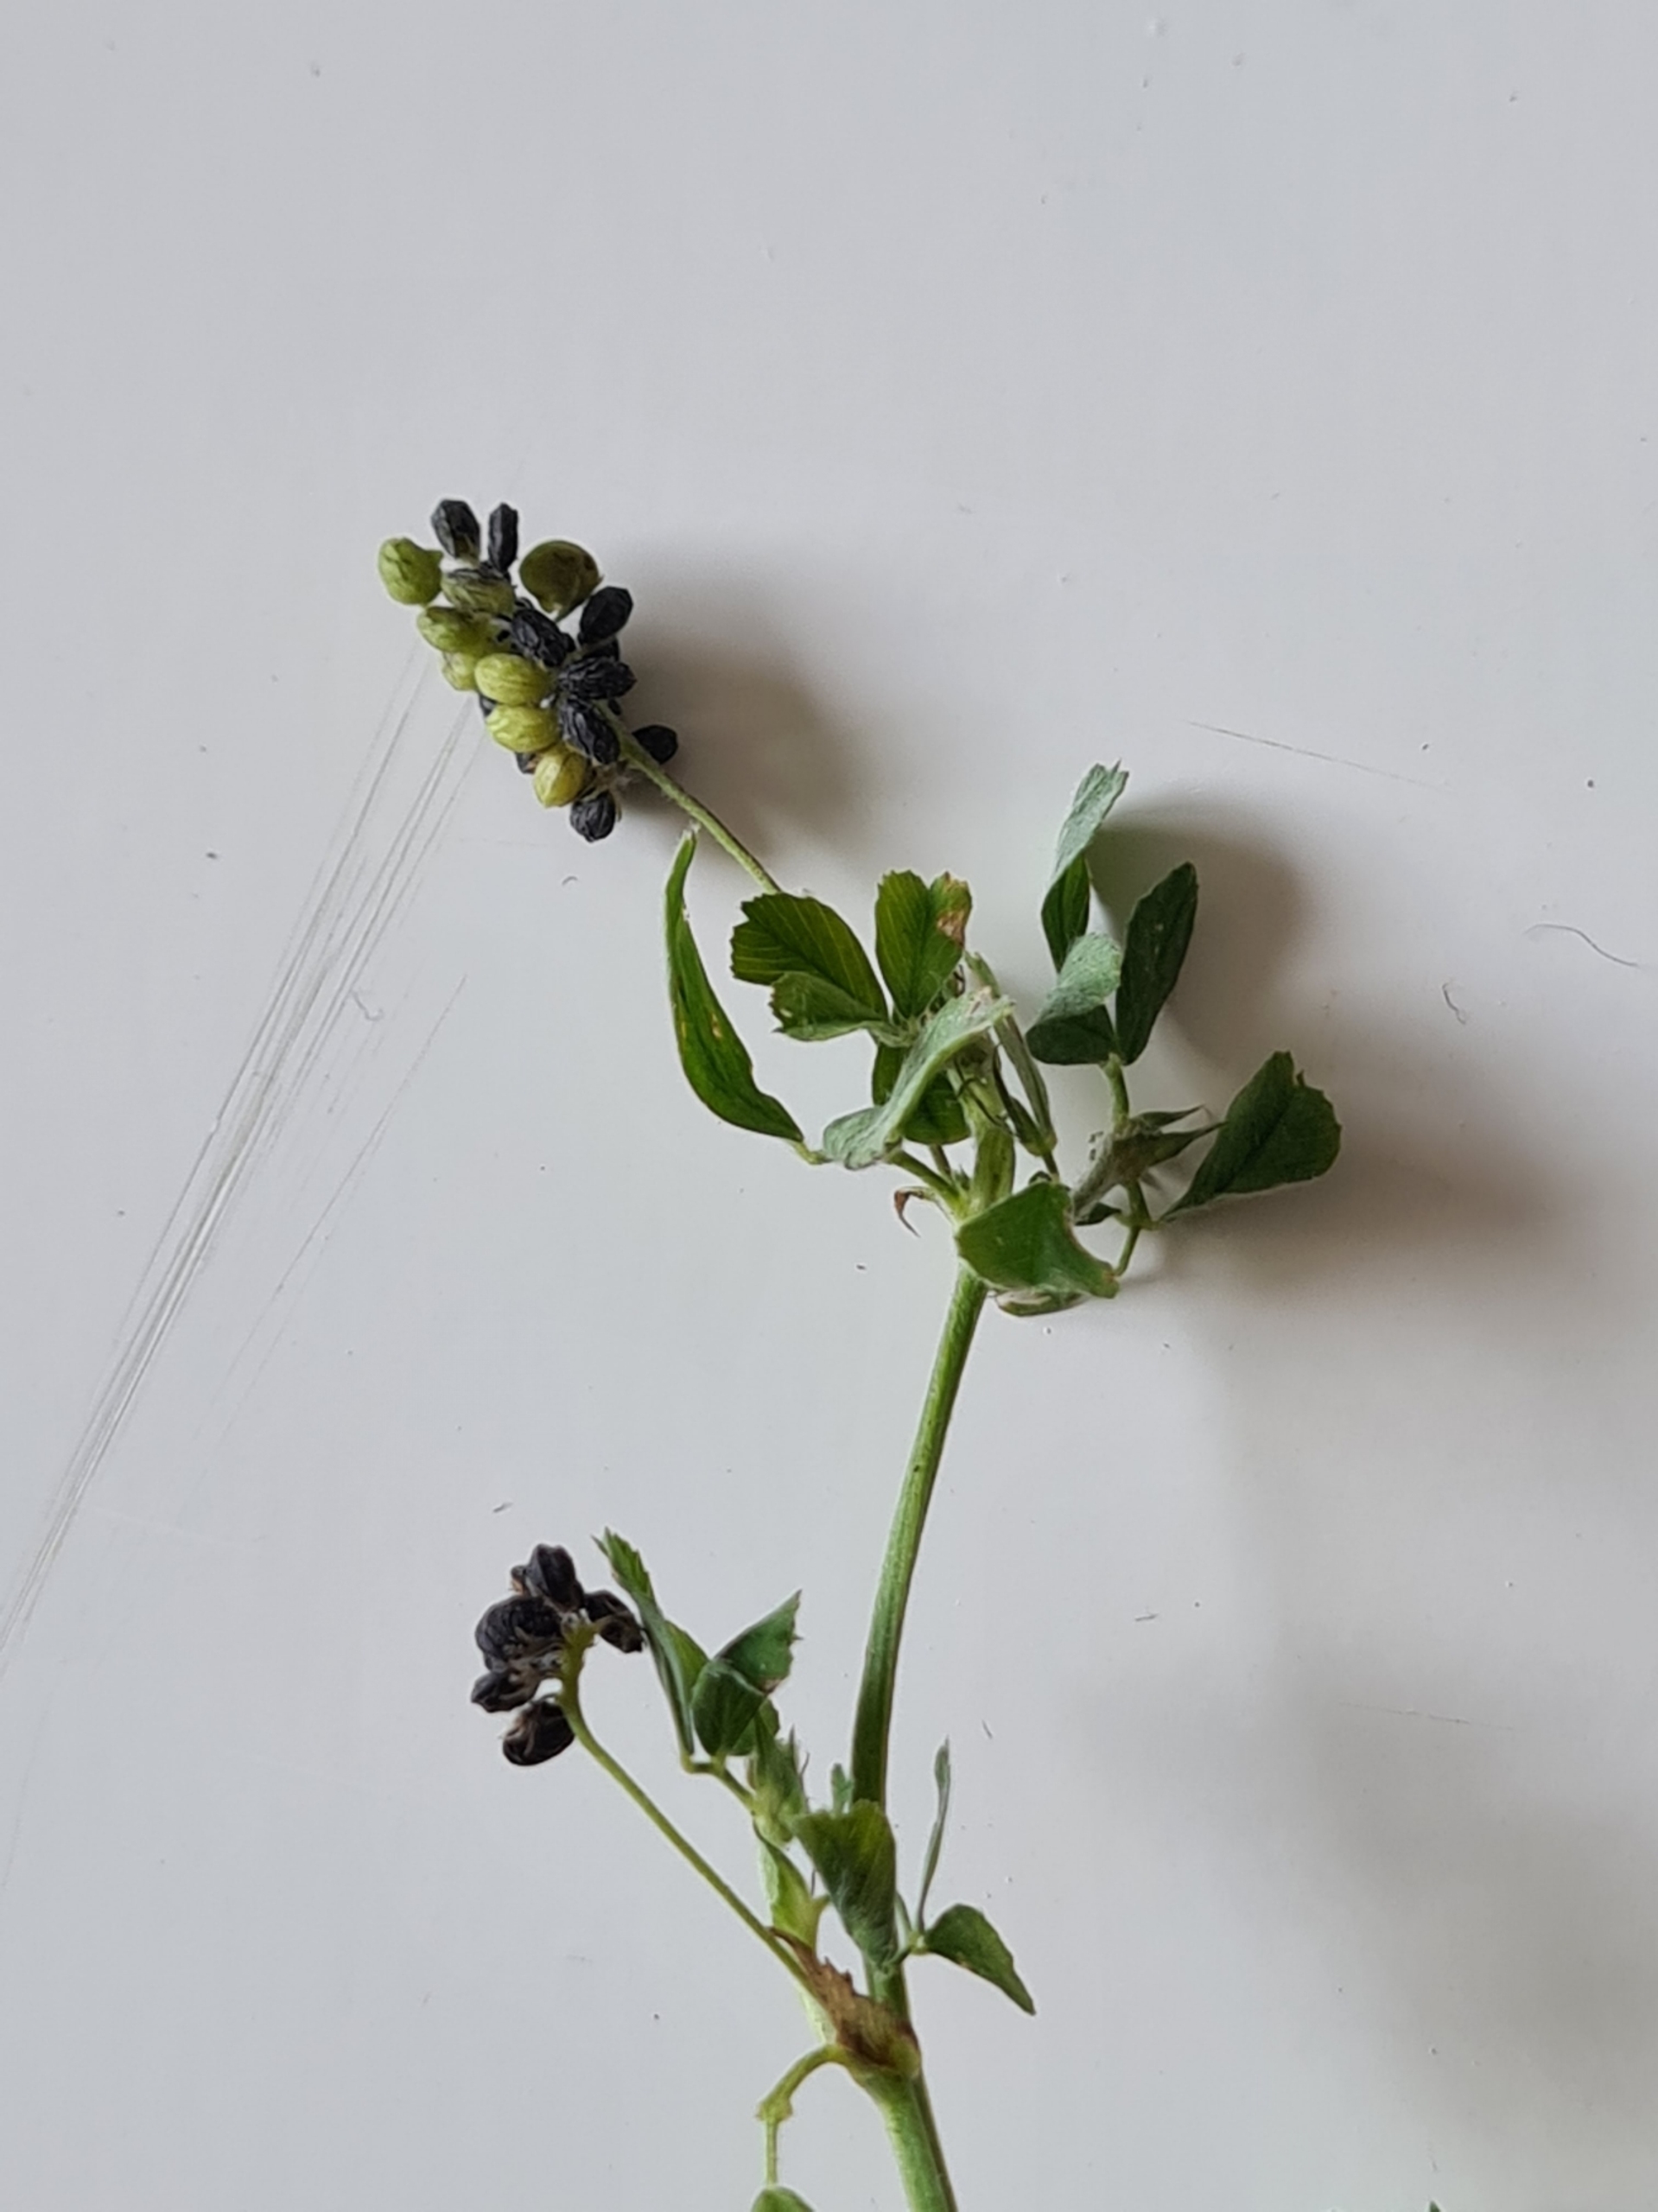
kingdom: Plantae
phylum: Tracheophyta
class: Magnoliopsida
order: Fabales
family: Fabaceae
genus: Medicago
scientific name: Medicago lupulina
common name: Humle-sneglebælg
